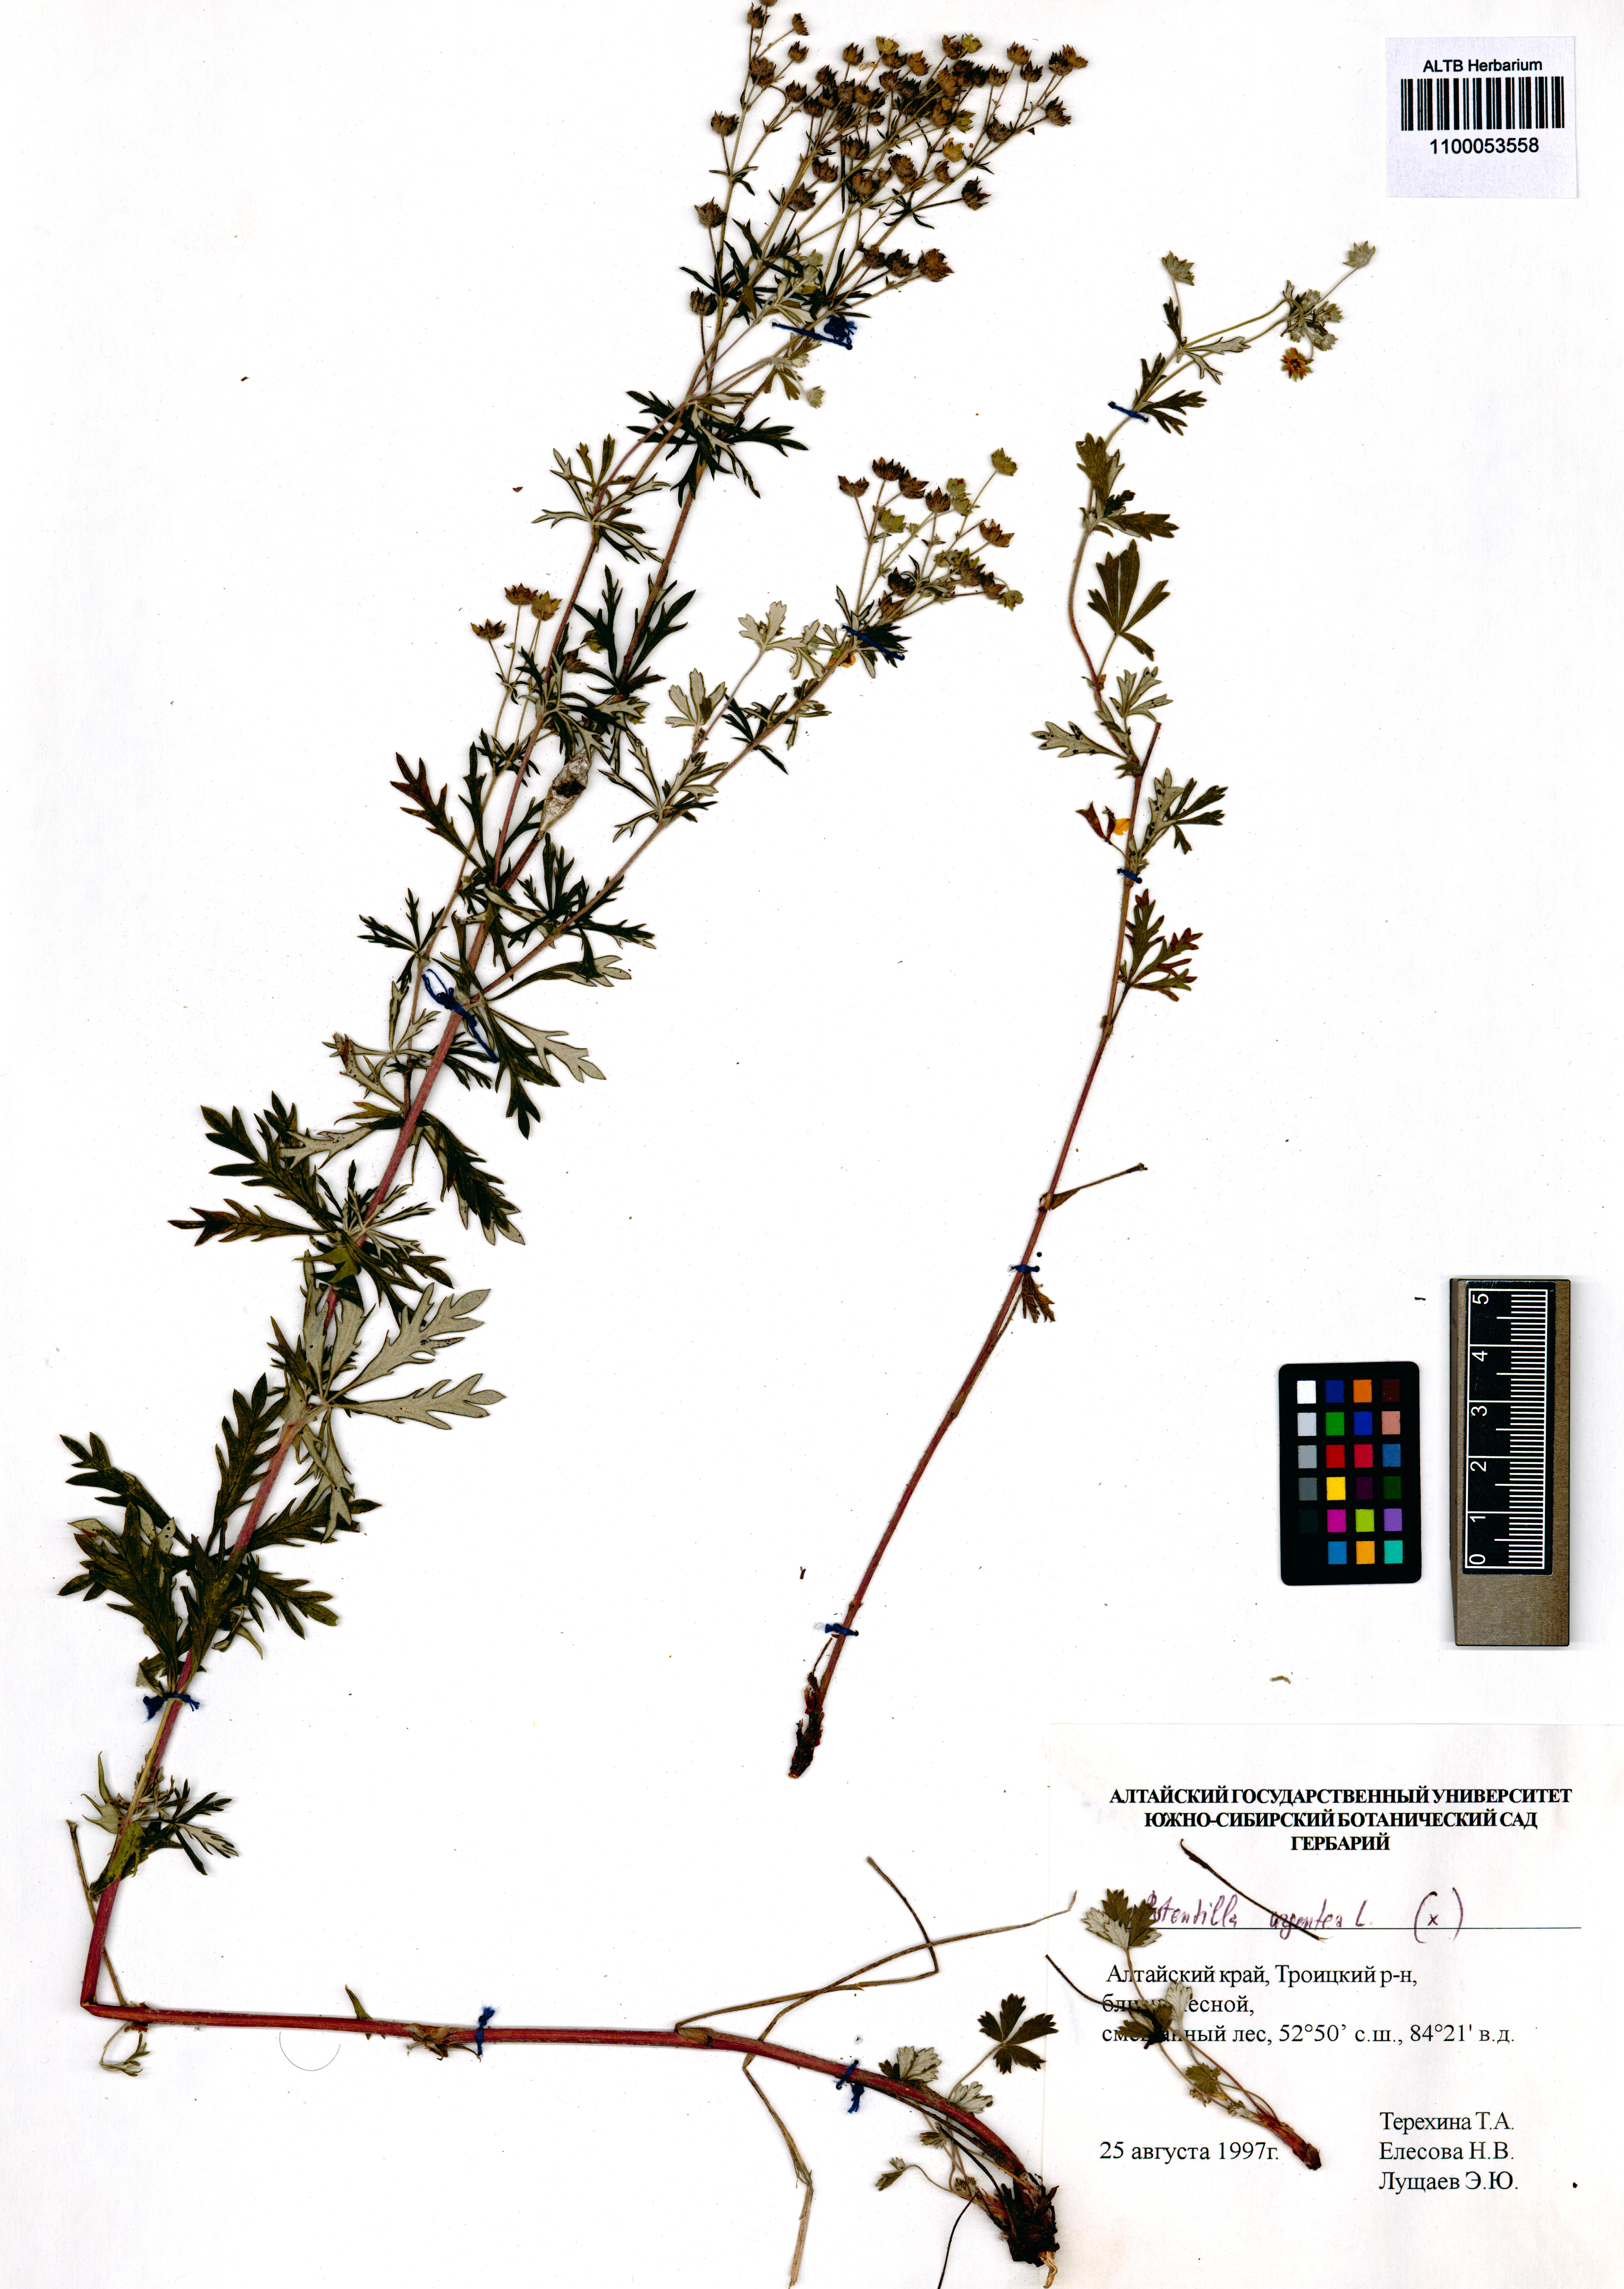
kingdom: Plantae
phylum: Tracheophyta
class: Magnoliopsida
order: Rosales
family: Rosaceae
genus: Potentilla
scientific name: Potentilla argentea
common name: Hoary cinquefoil
